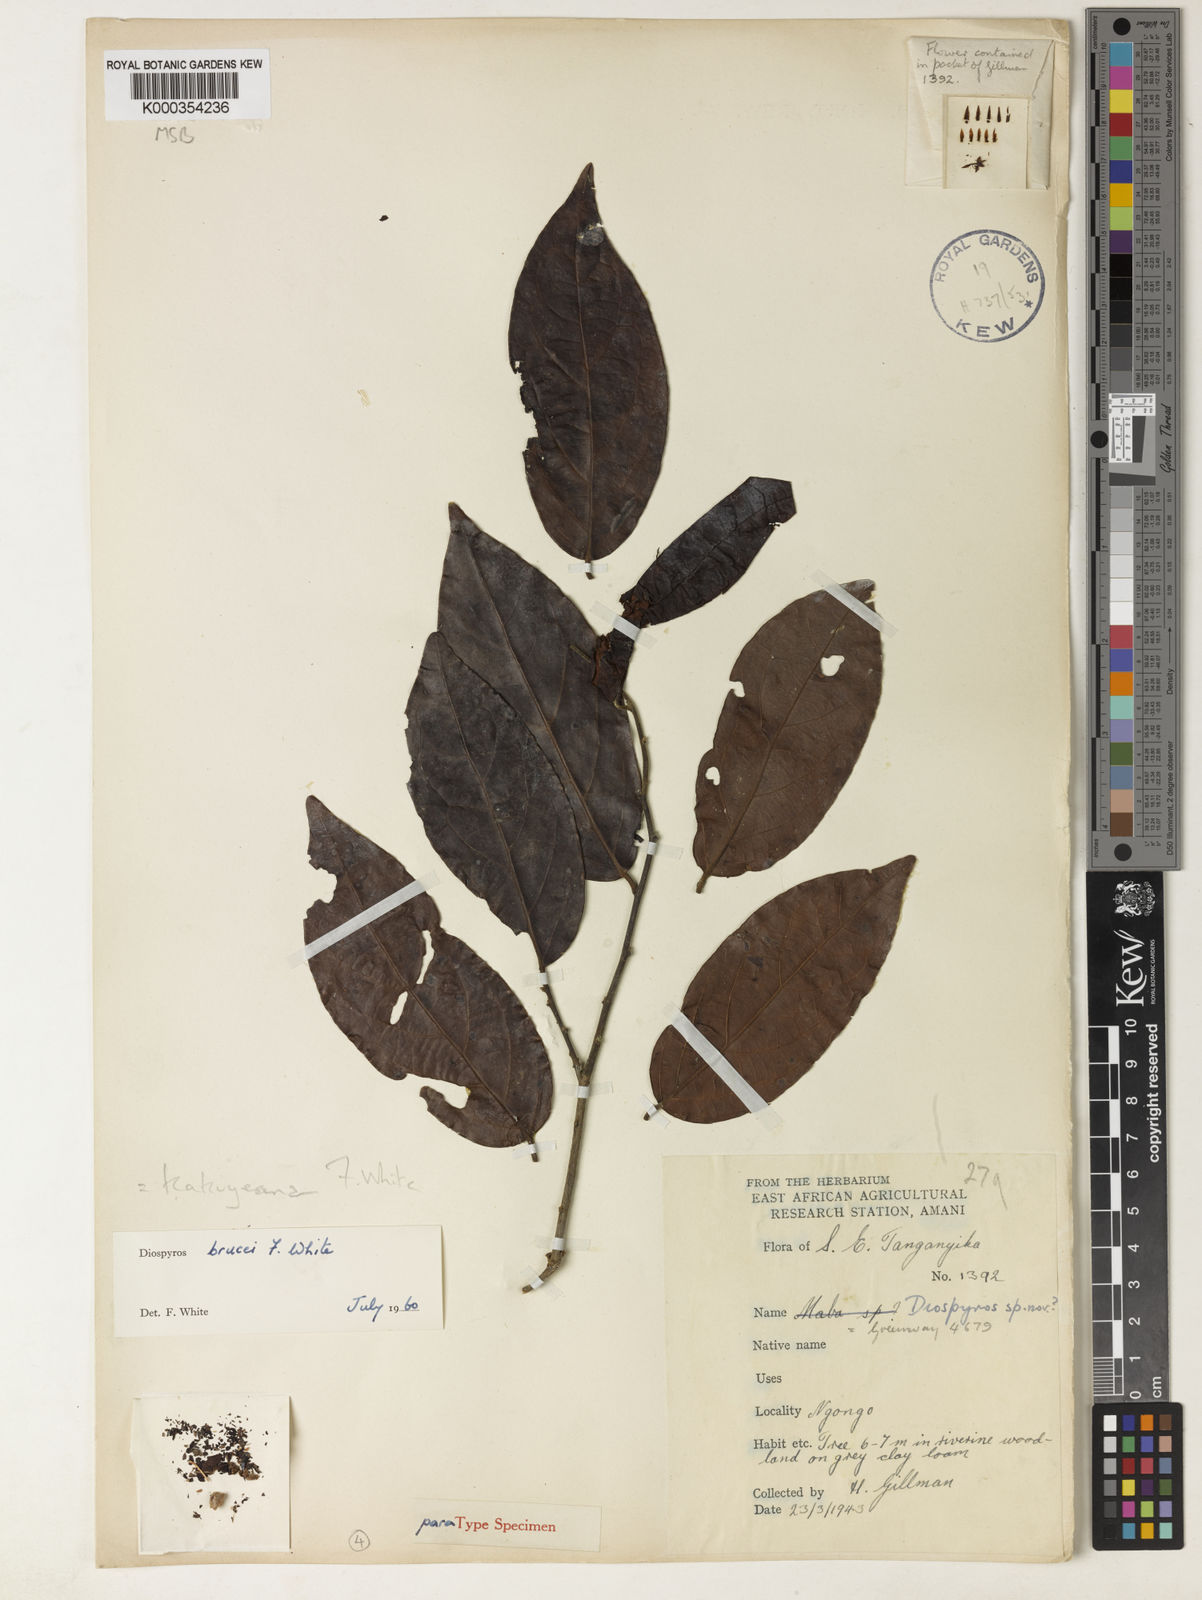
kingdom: Plantae
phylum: Tracheophyta
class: Magnoliopsida
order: Ericales
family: Ebenaceae
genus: Diospyros
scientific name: Diospyros kabuyeana
